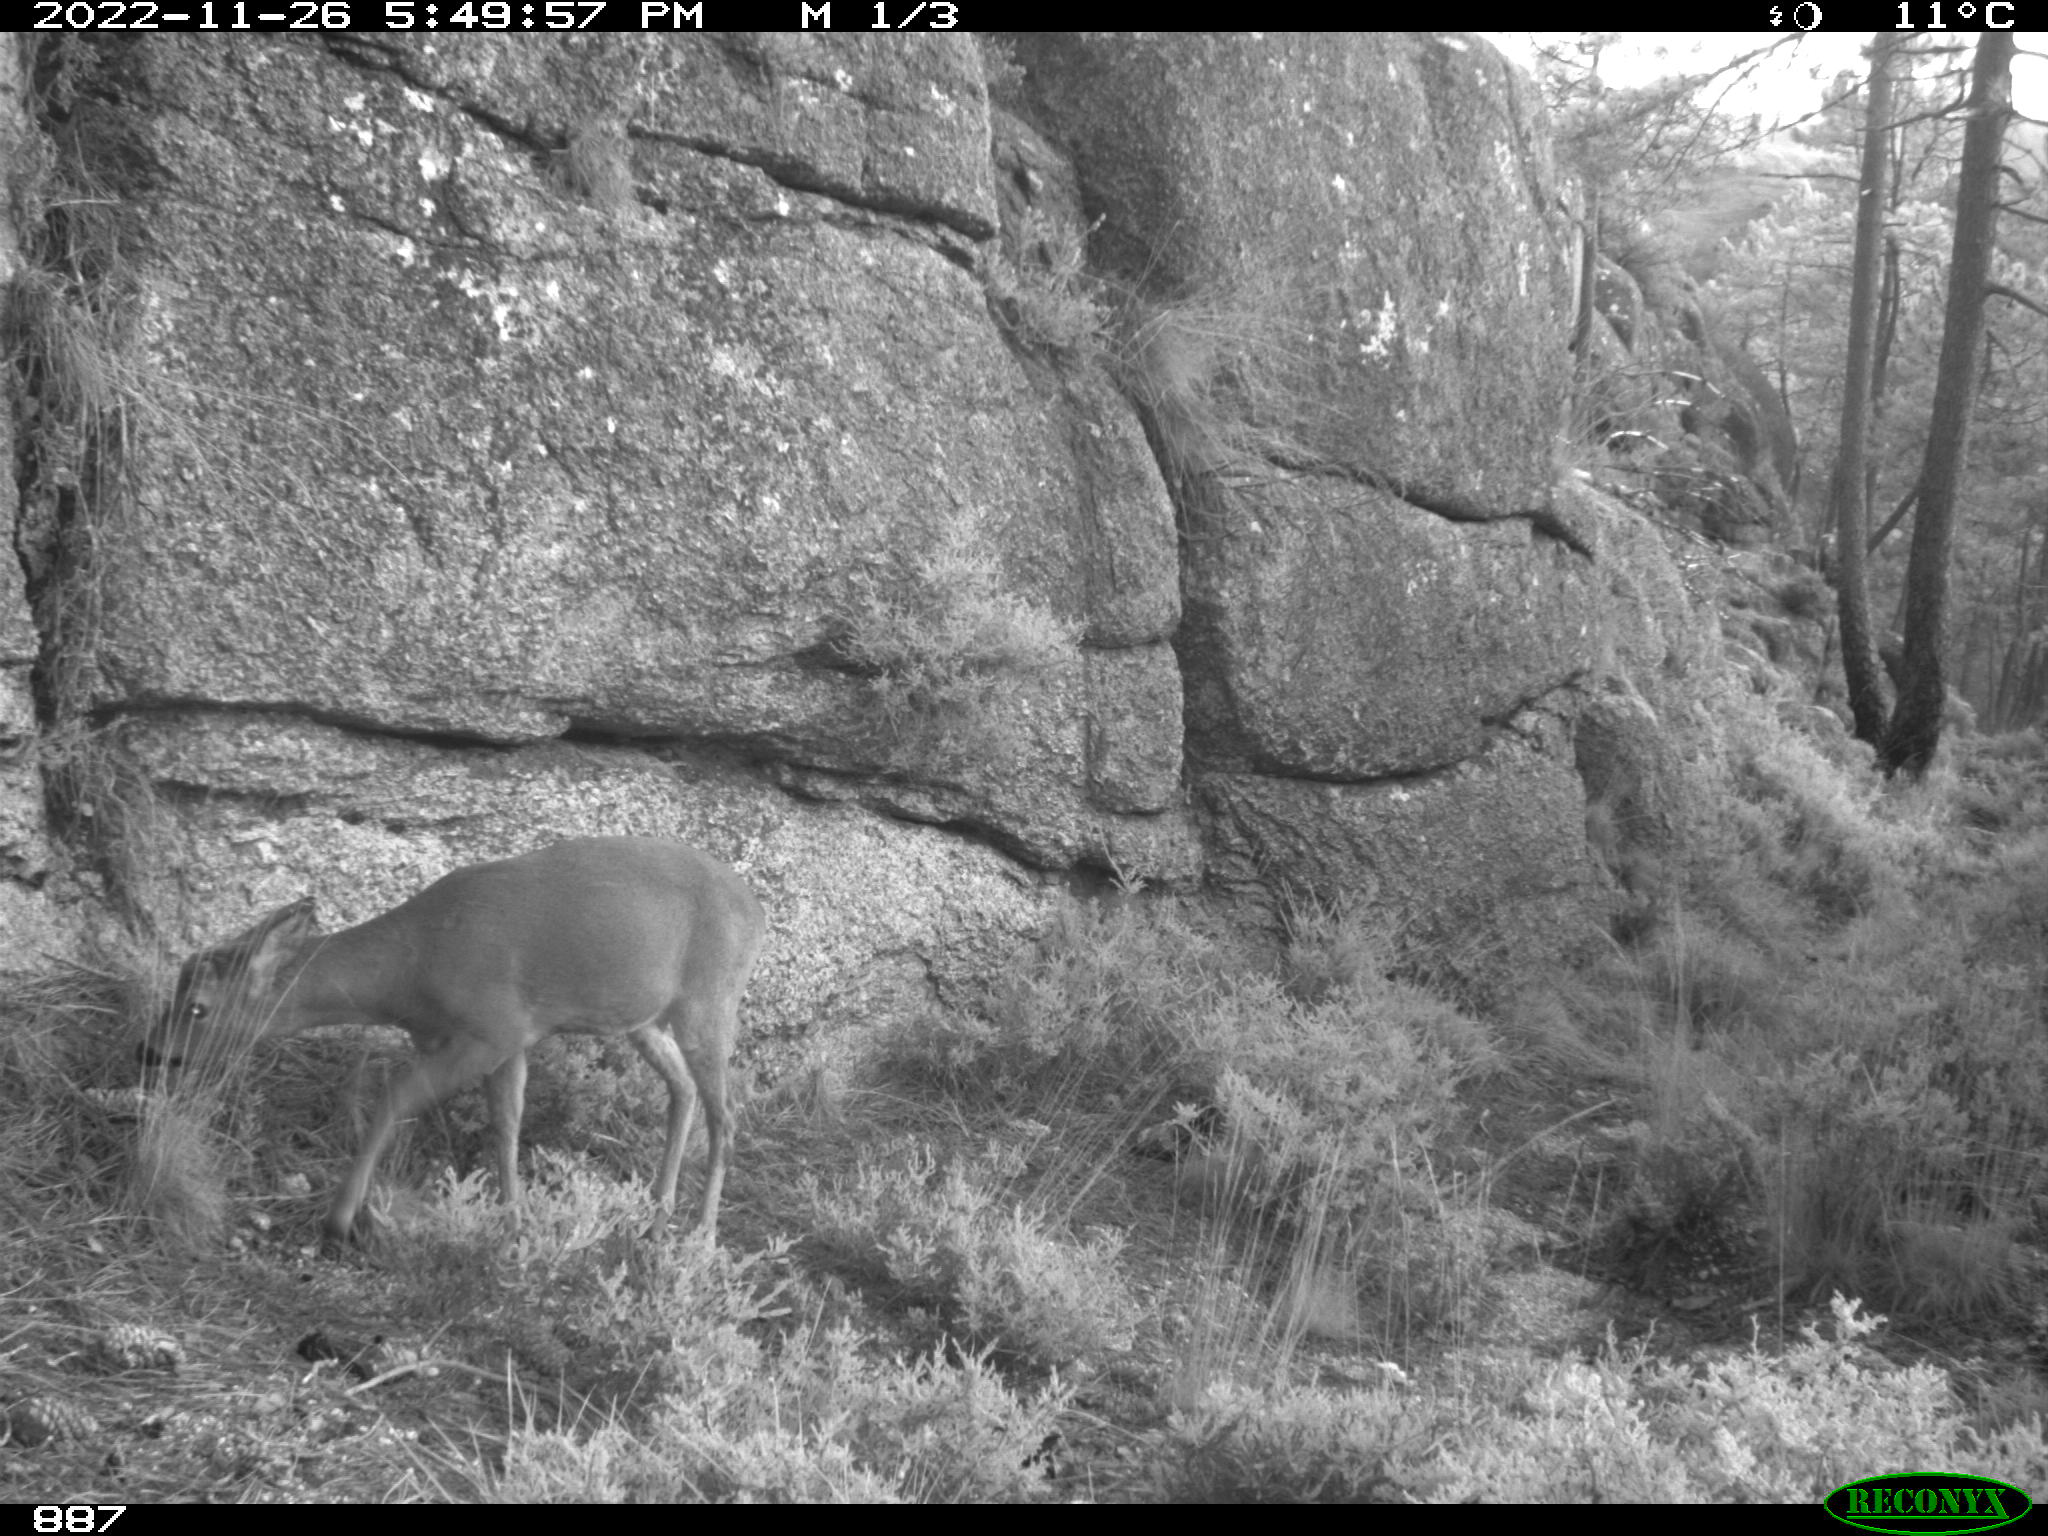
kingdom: Animalia
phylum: Chordata
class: Mammalia
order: Artiodactyla
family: Cervidae
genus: Capreolus
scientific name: Capreolus capreolus
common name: Western roe deer
